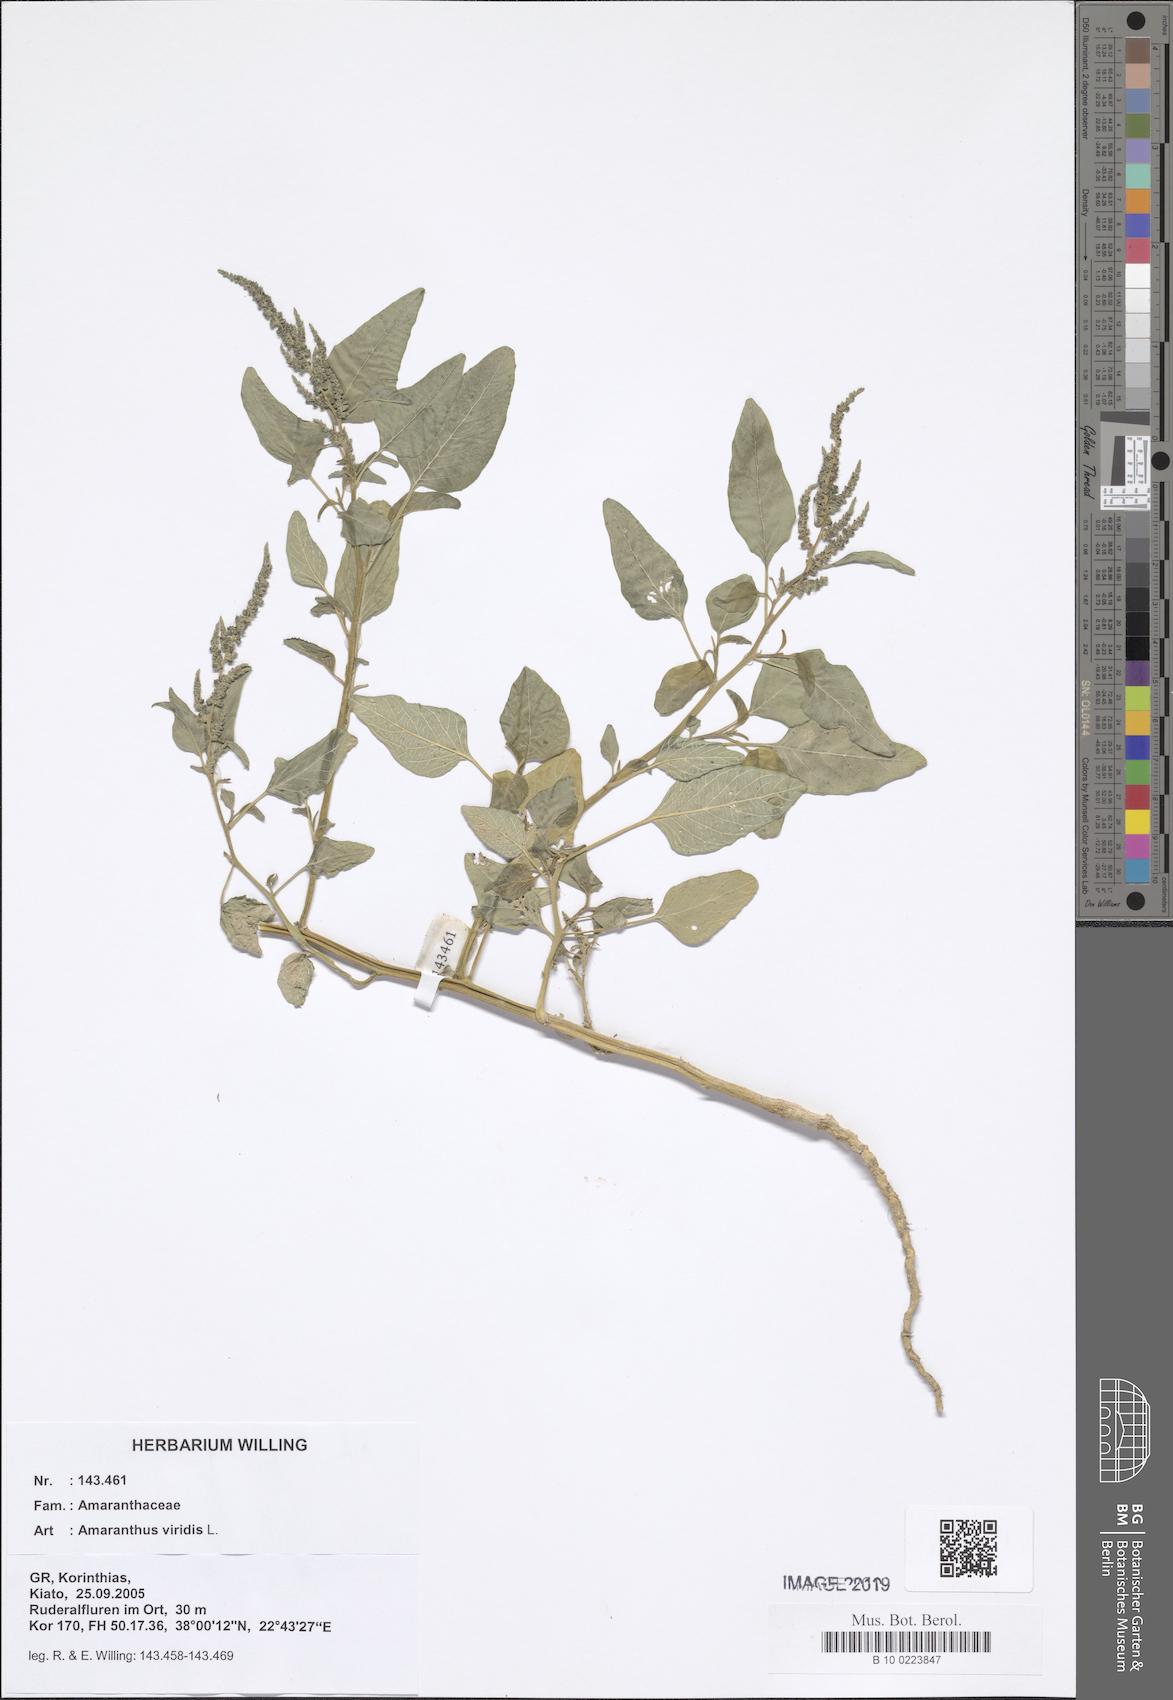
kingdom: Plantae
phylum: Tracheophyta
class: Magnoliopsida
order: Caryophyllales
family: Amaranthaceae
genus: Amaranthus
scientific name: Amaranthus viridis
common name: Slender amaranth
